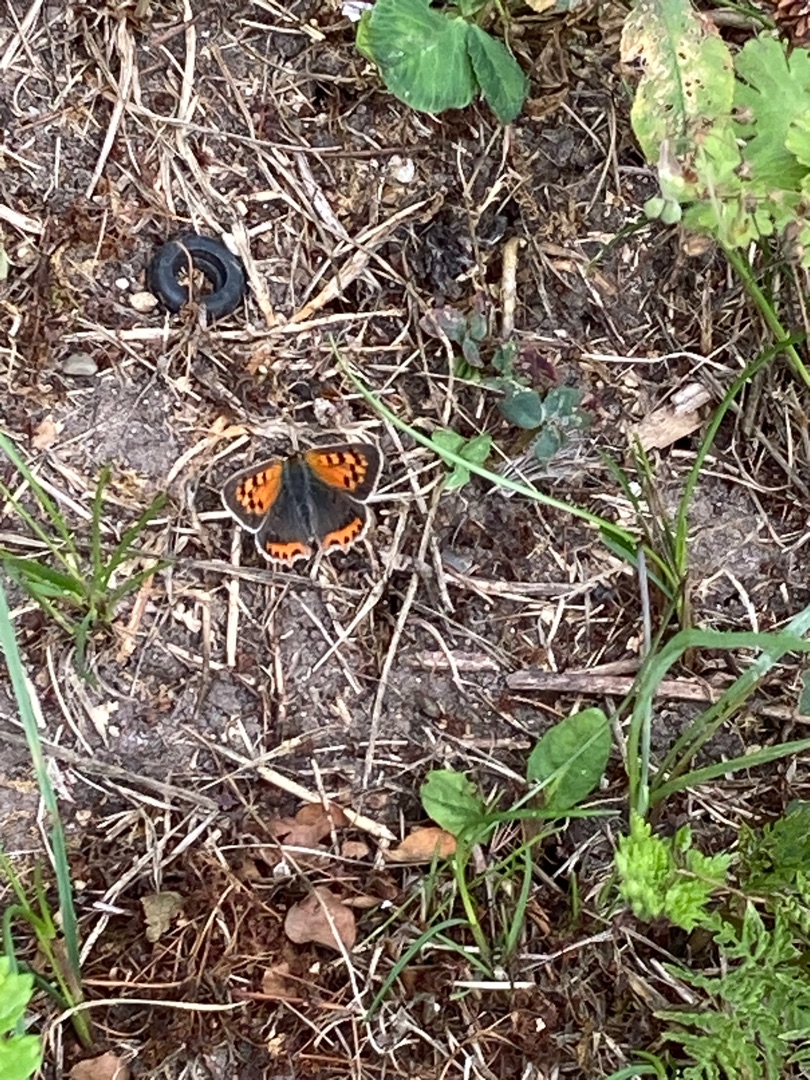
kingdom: Animalia
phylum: Arthropoda
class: Insecta
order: Lepidoptera
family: Lycaenidae
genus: Lycaena
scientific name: Lycaena phlaeas
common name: Lille ildfugl
